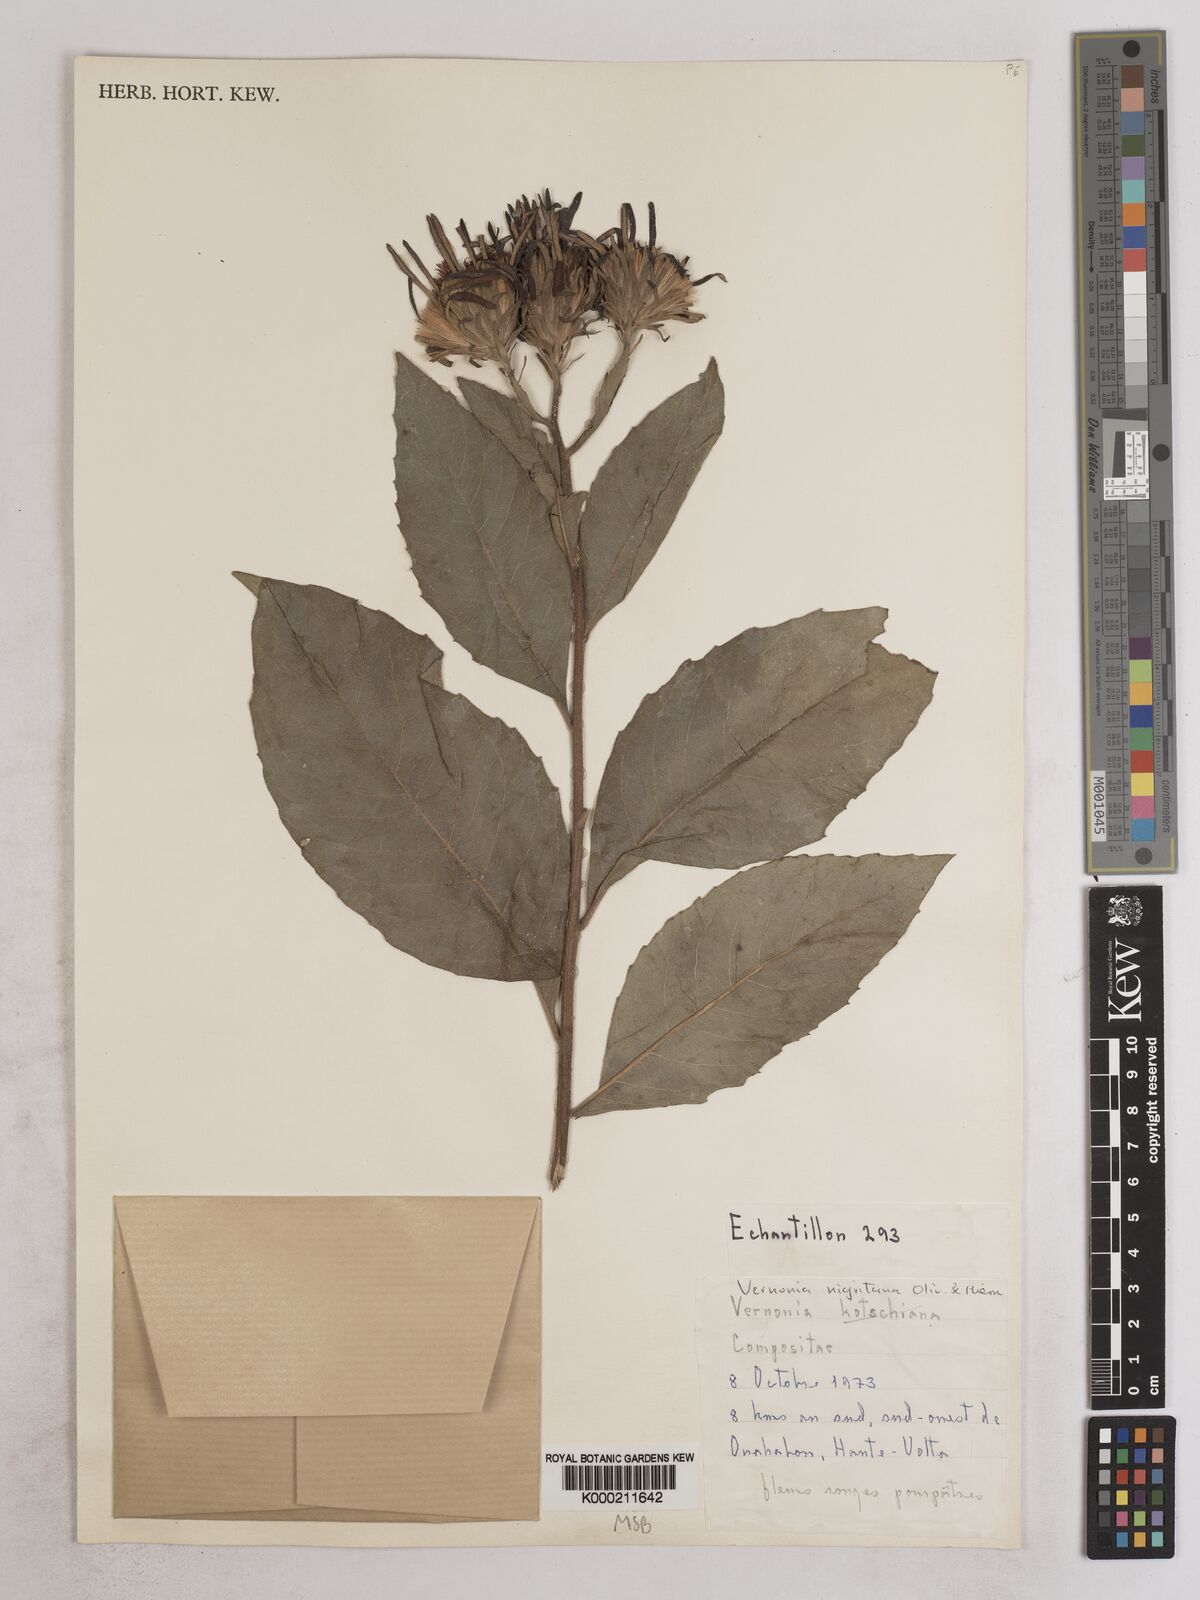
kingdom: Plantae
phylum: Tracheophyta
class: Magnoliopsida
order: Asterales
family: Asteraceae
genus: Linzia
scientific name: Linzia nigritiana
